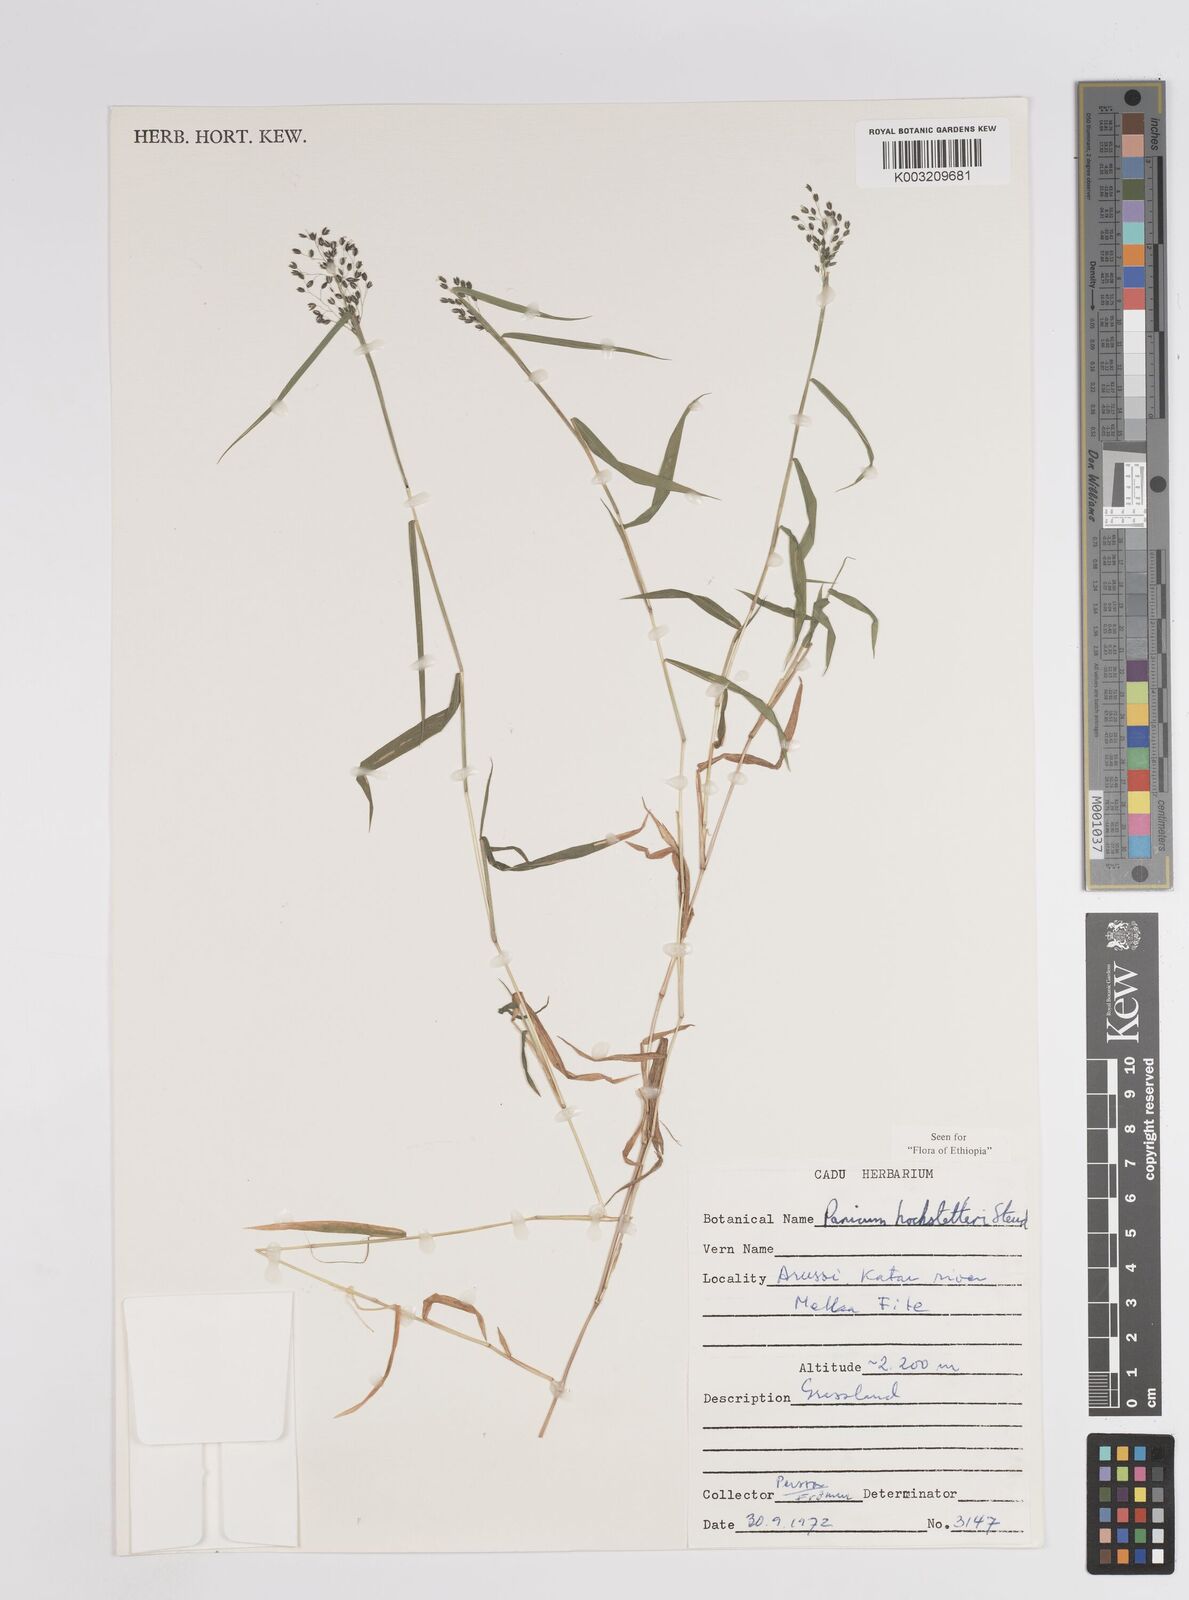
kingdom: Plantae
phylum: Tracheophyta
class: Liliopsida
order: Poales
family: Poaceae
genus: Panicum
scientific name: Panicum hochstetteri
